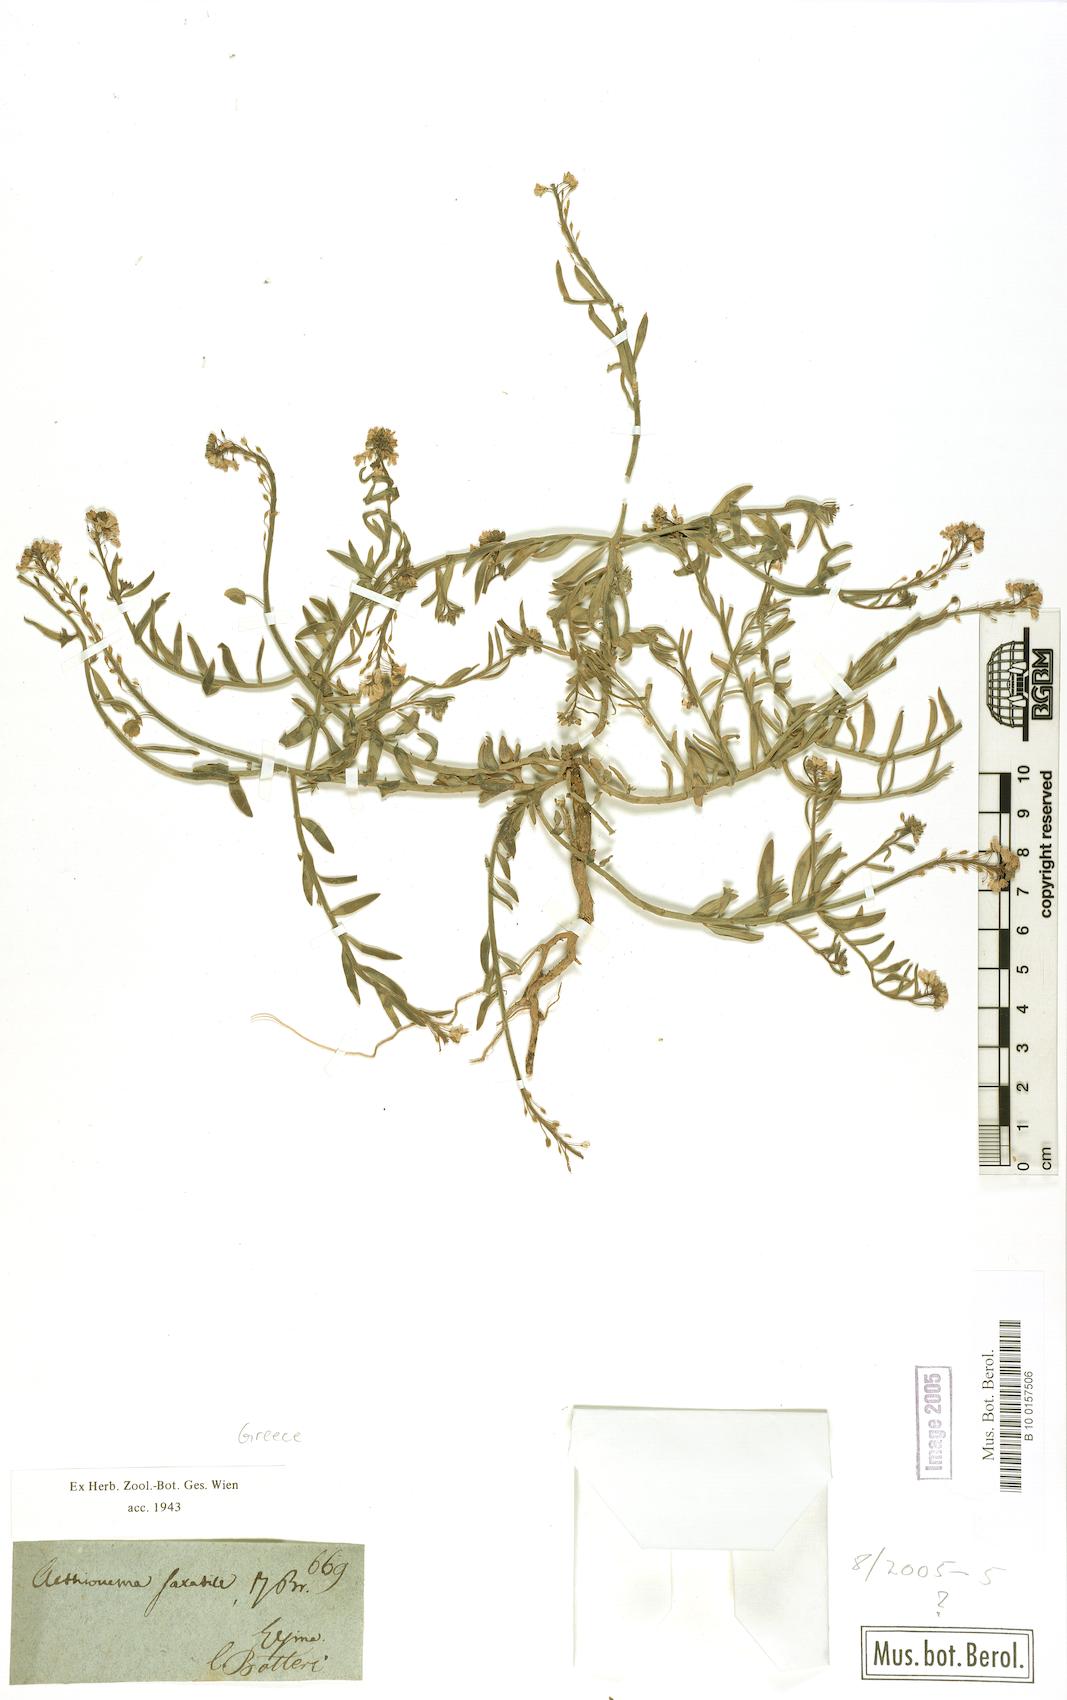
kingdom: Plantae
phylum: Tracheophyta
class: Magnoliopsida
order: Brassicales
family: Brassicaceae
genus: Aethionema
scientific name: Aethionema saxatile
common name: Burnt candytuft
